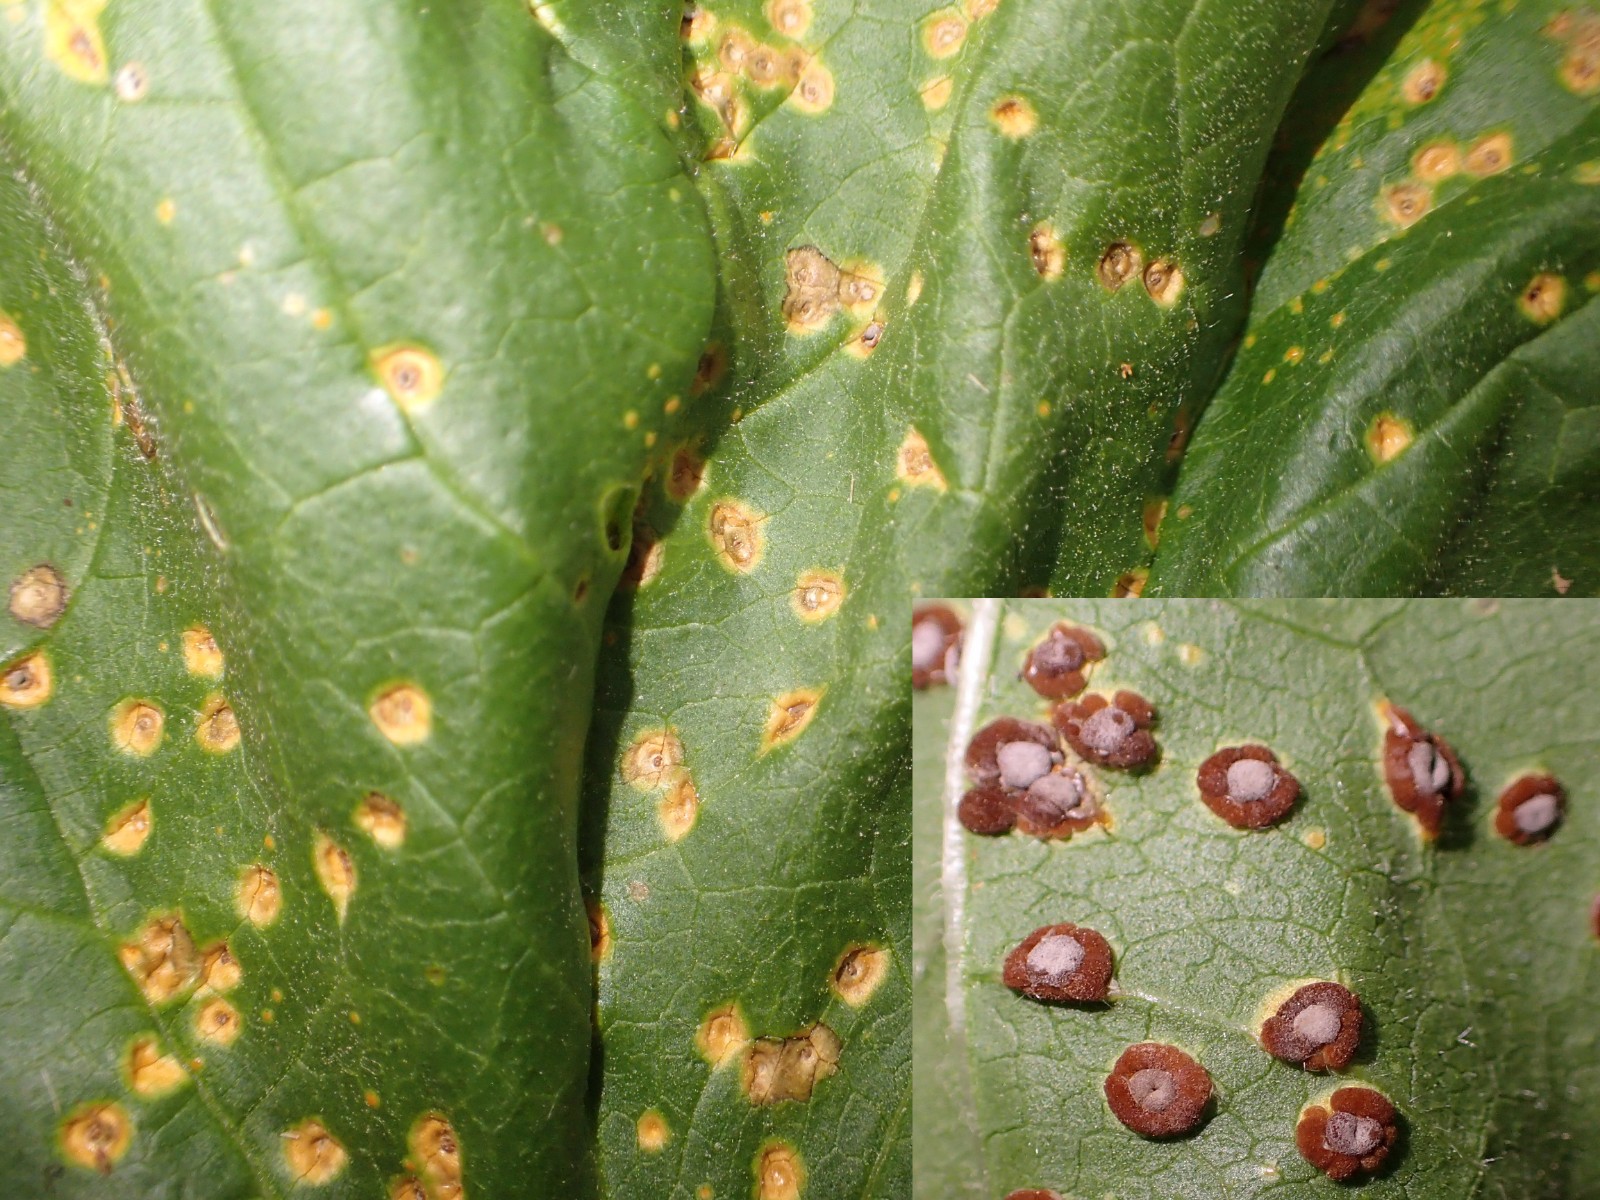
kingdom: Fungi
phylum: Basidiomycota
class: Pucciniomycetes
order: Pucciniales
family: Pucciniaceae
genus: Puccinia
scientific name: Puccinia malvacearum
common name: stokrose-tvecellerust
